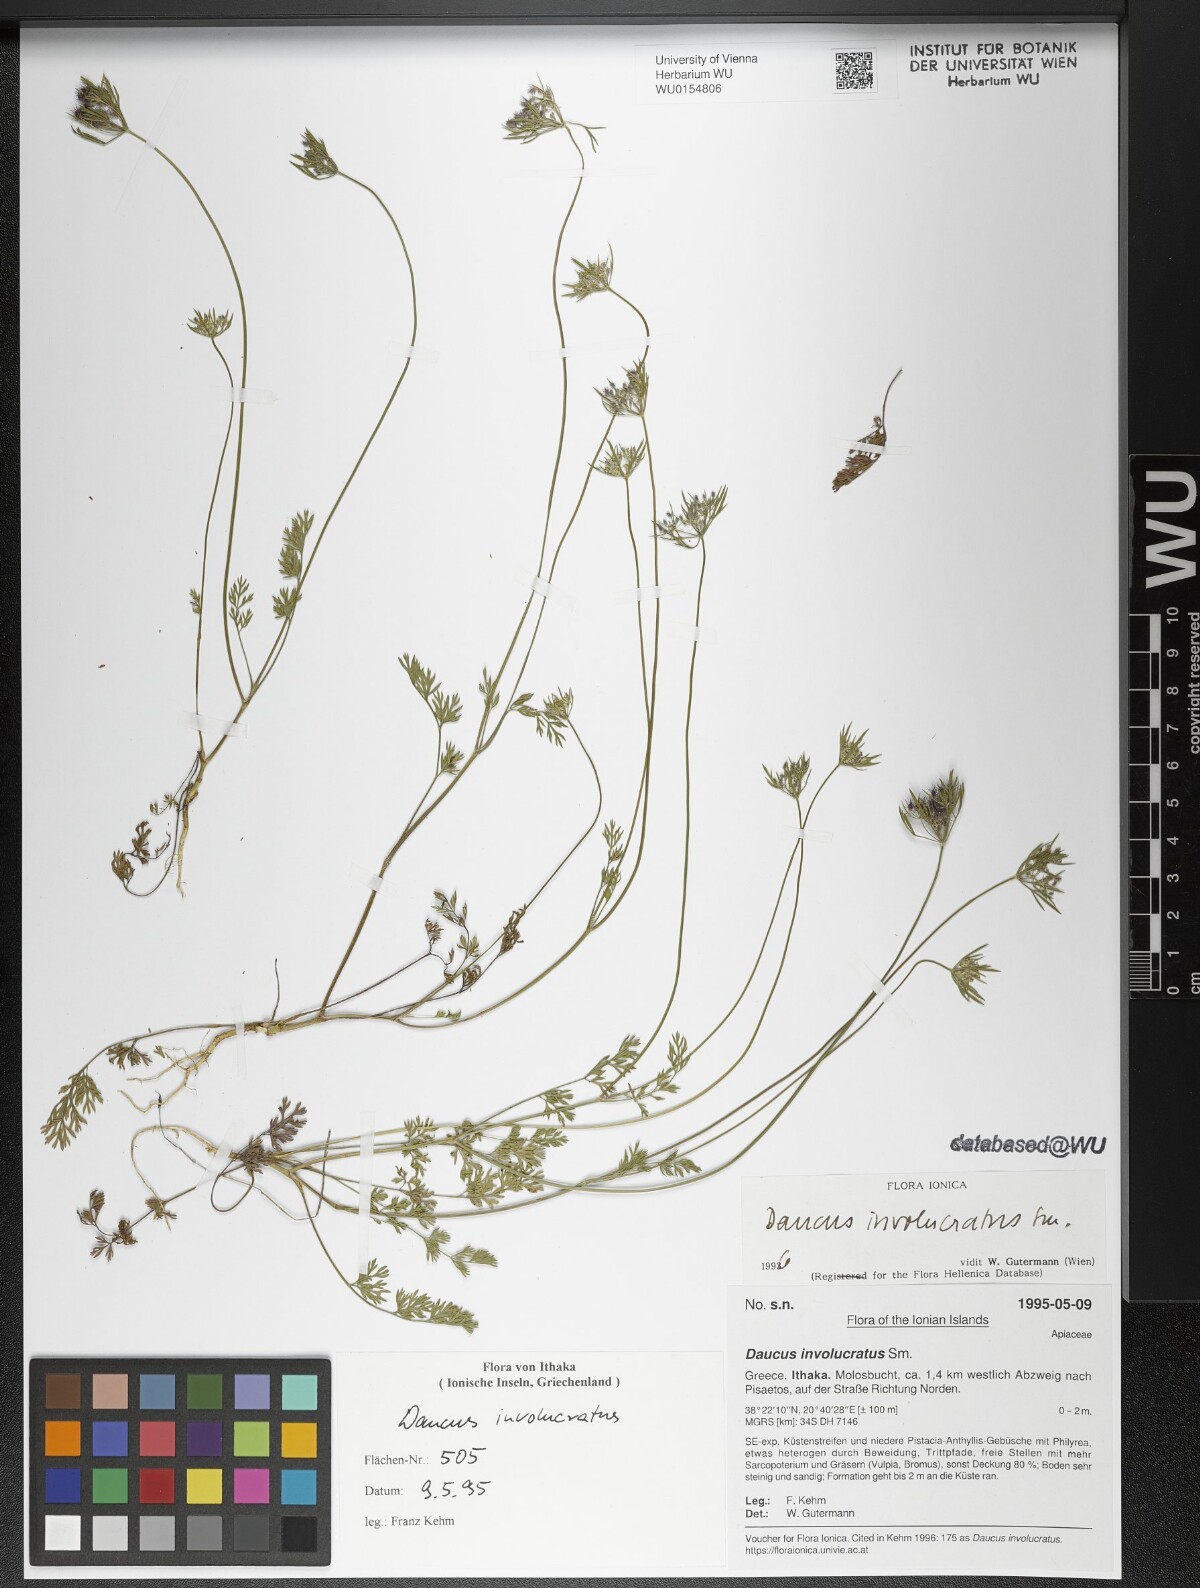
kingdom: Plantae
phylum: Tracheophyta
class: Magnoliopsida
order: Apiales
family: Apiaceae
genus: Daucus
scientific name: Daucus involucratus
